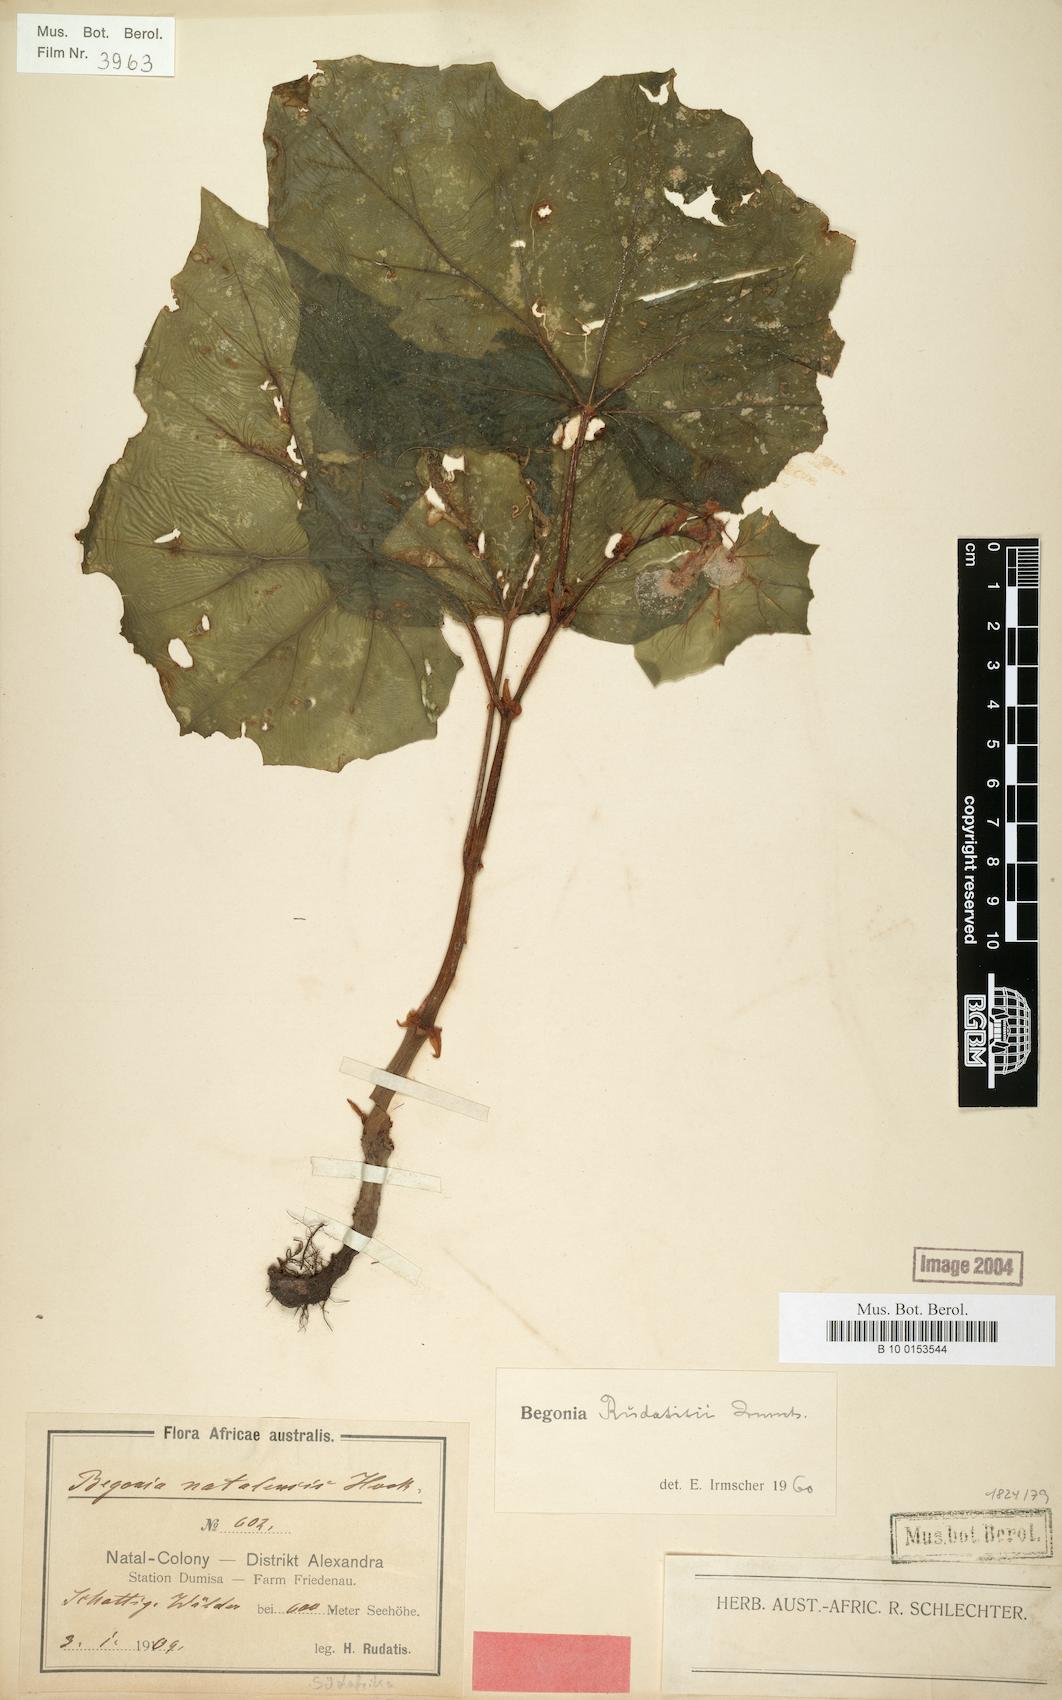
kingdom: Plantae
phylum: Tracheophyta
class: Magnoliopsida
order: Cucurbitales
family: Begoniaceae
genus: Begonia
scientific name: Begonia homonyma
